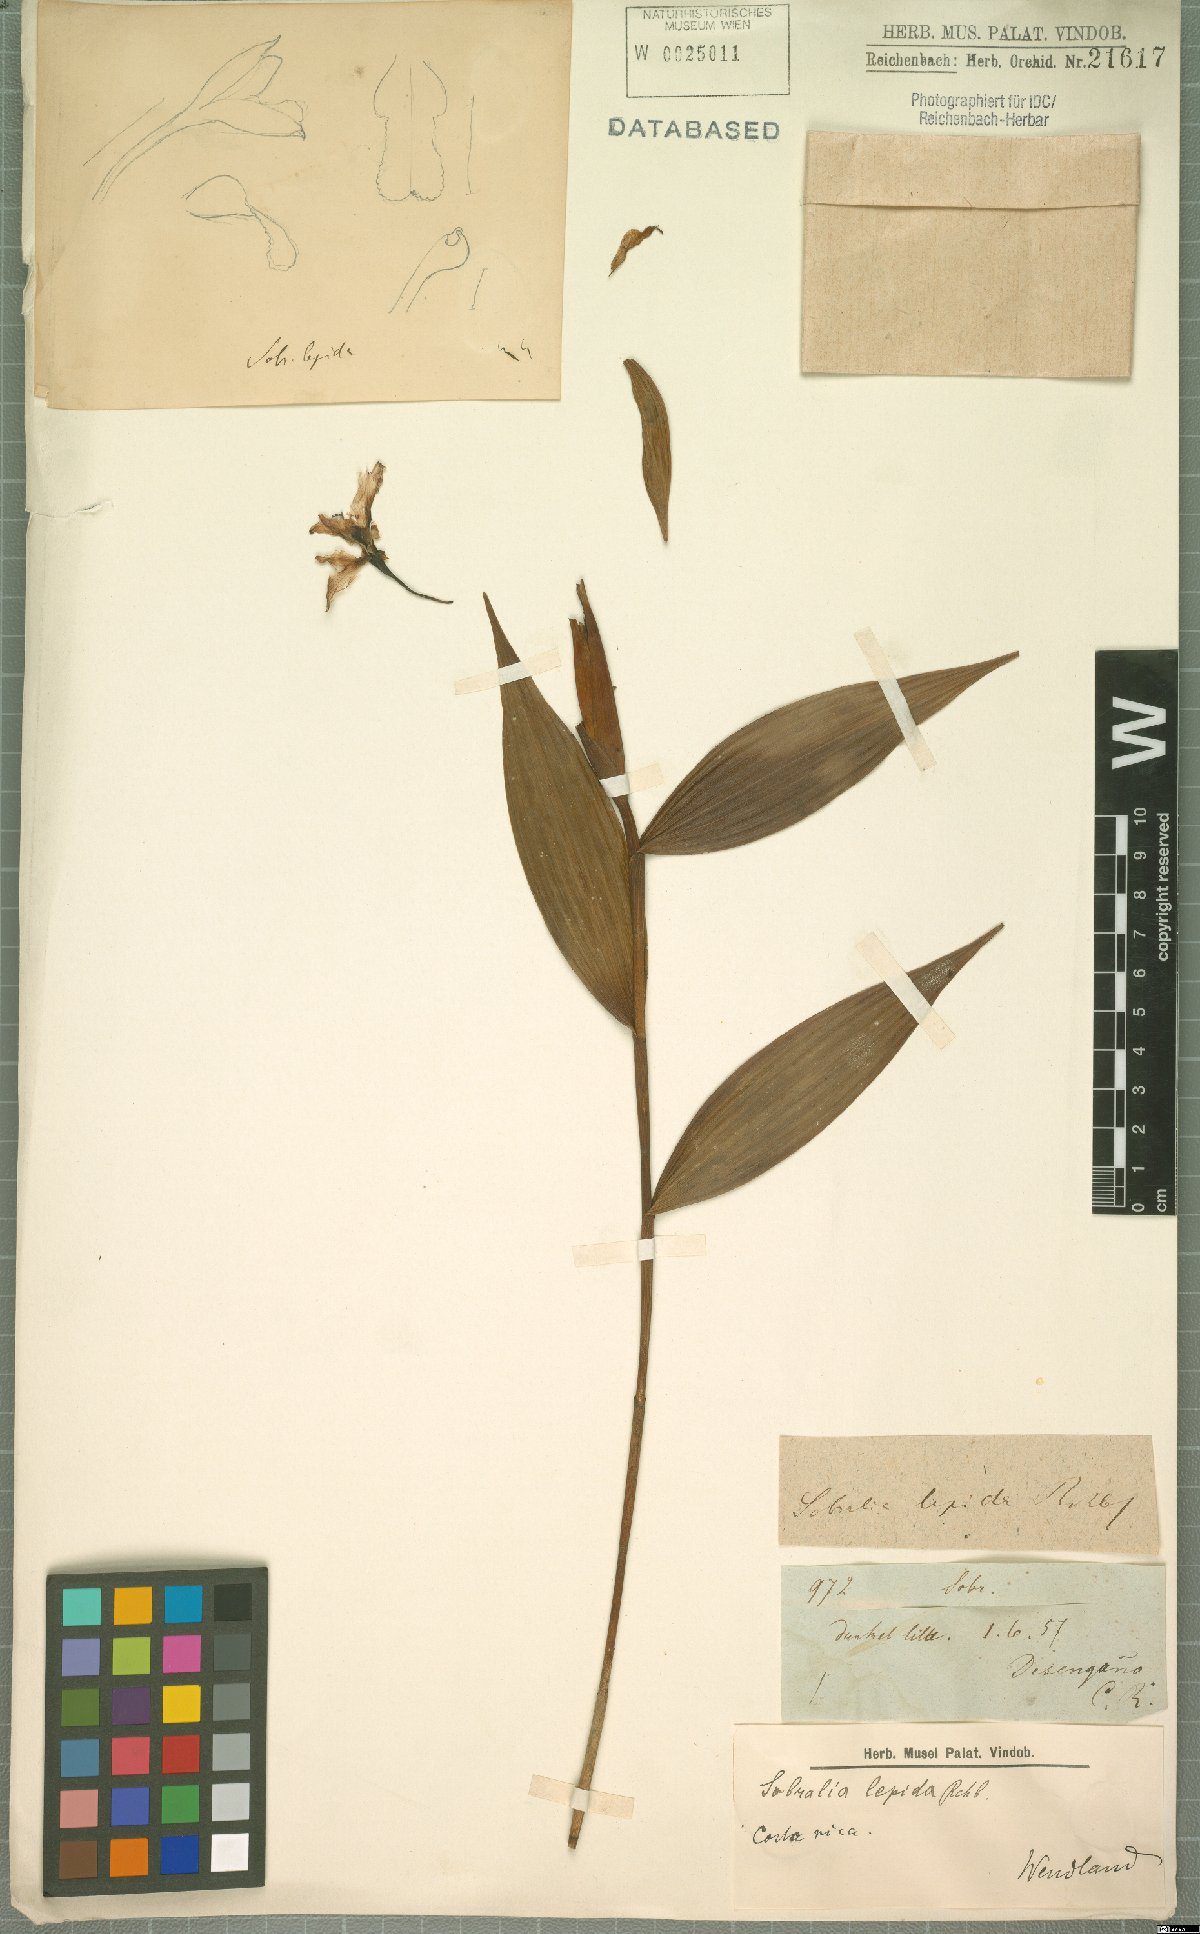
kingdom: Plantae
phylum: Tracheophyta
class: Liliopsida
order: Asparagales
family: Orchidaceae
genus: Sobralia
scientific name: Sobralia amabilis
